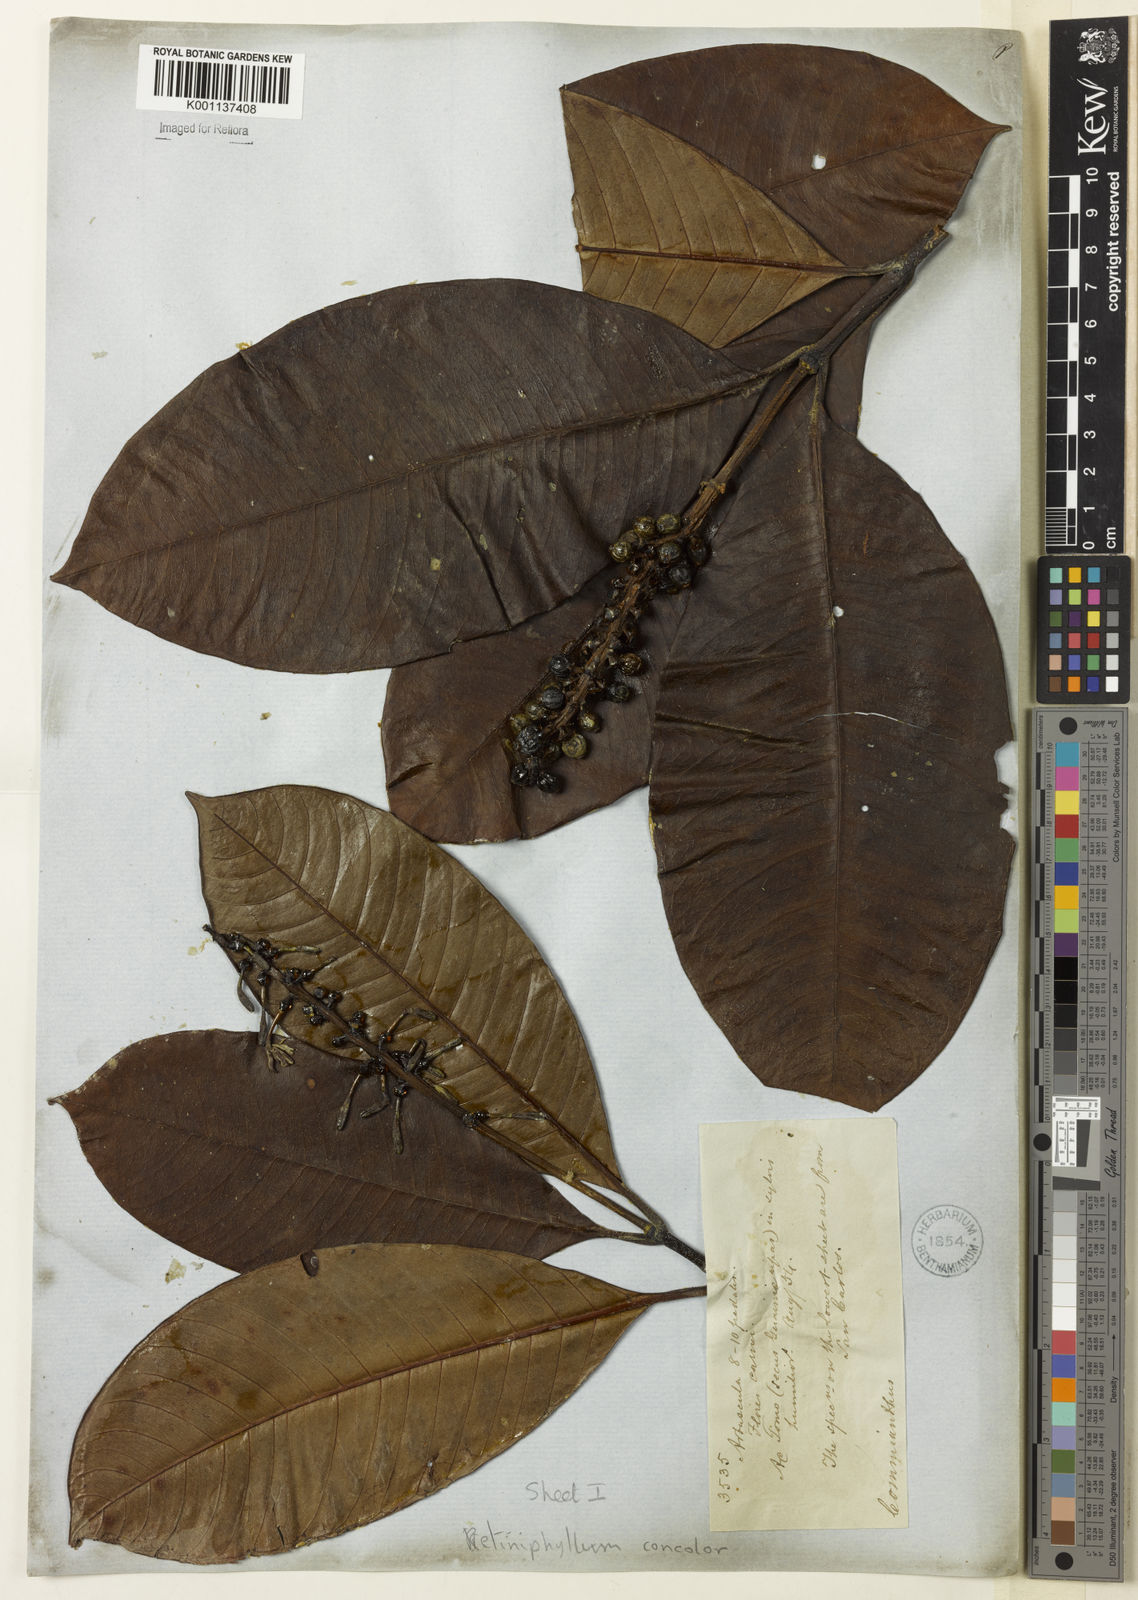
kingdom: Plantae
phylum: Tracheophyta
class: Magnoliopsida
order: Gentianales
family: Rubiaceae
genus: Retiniphyllum
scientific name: Retiniphyllum
